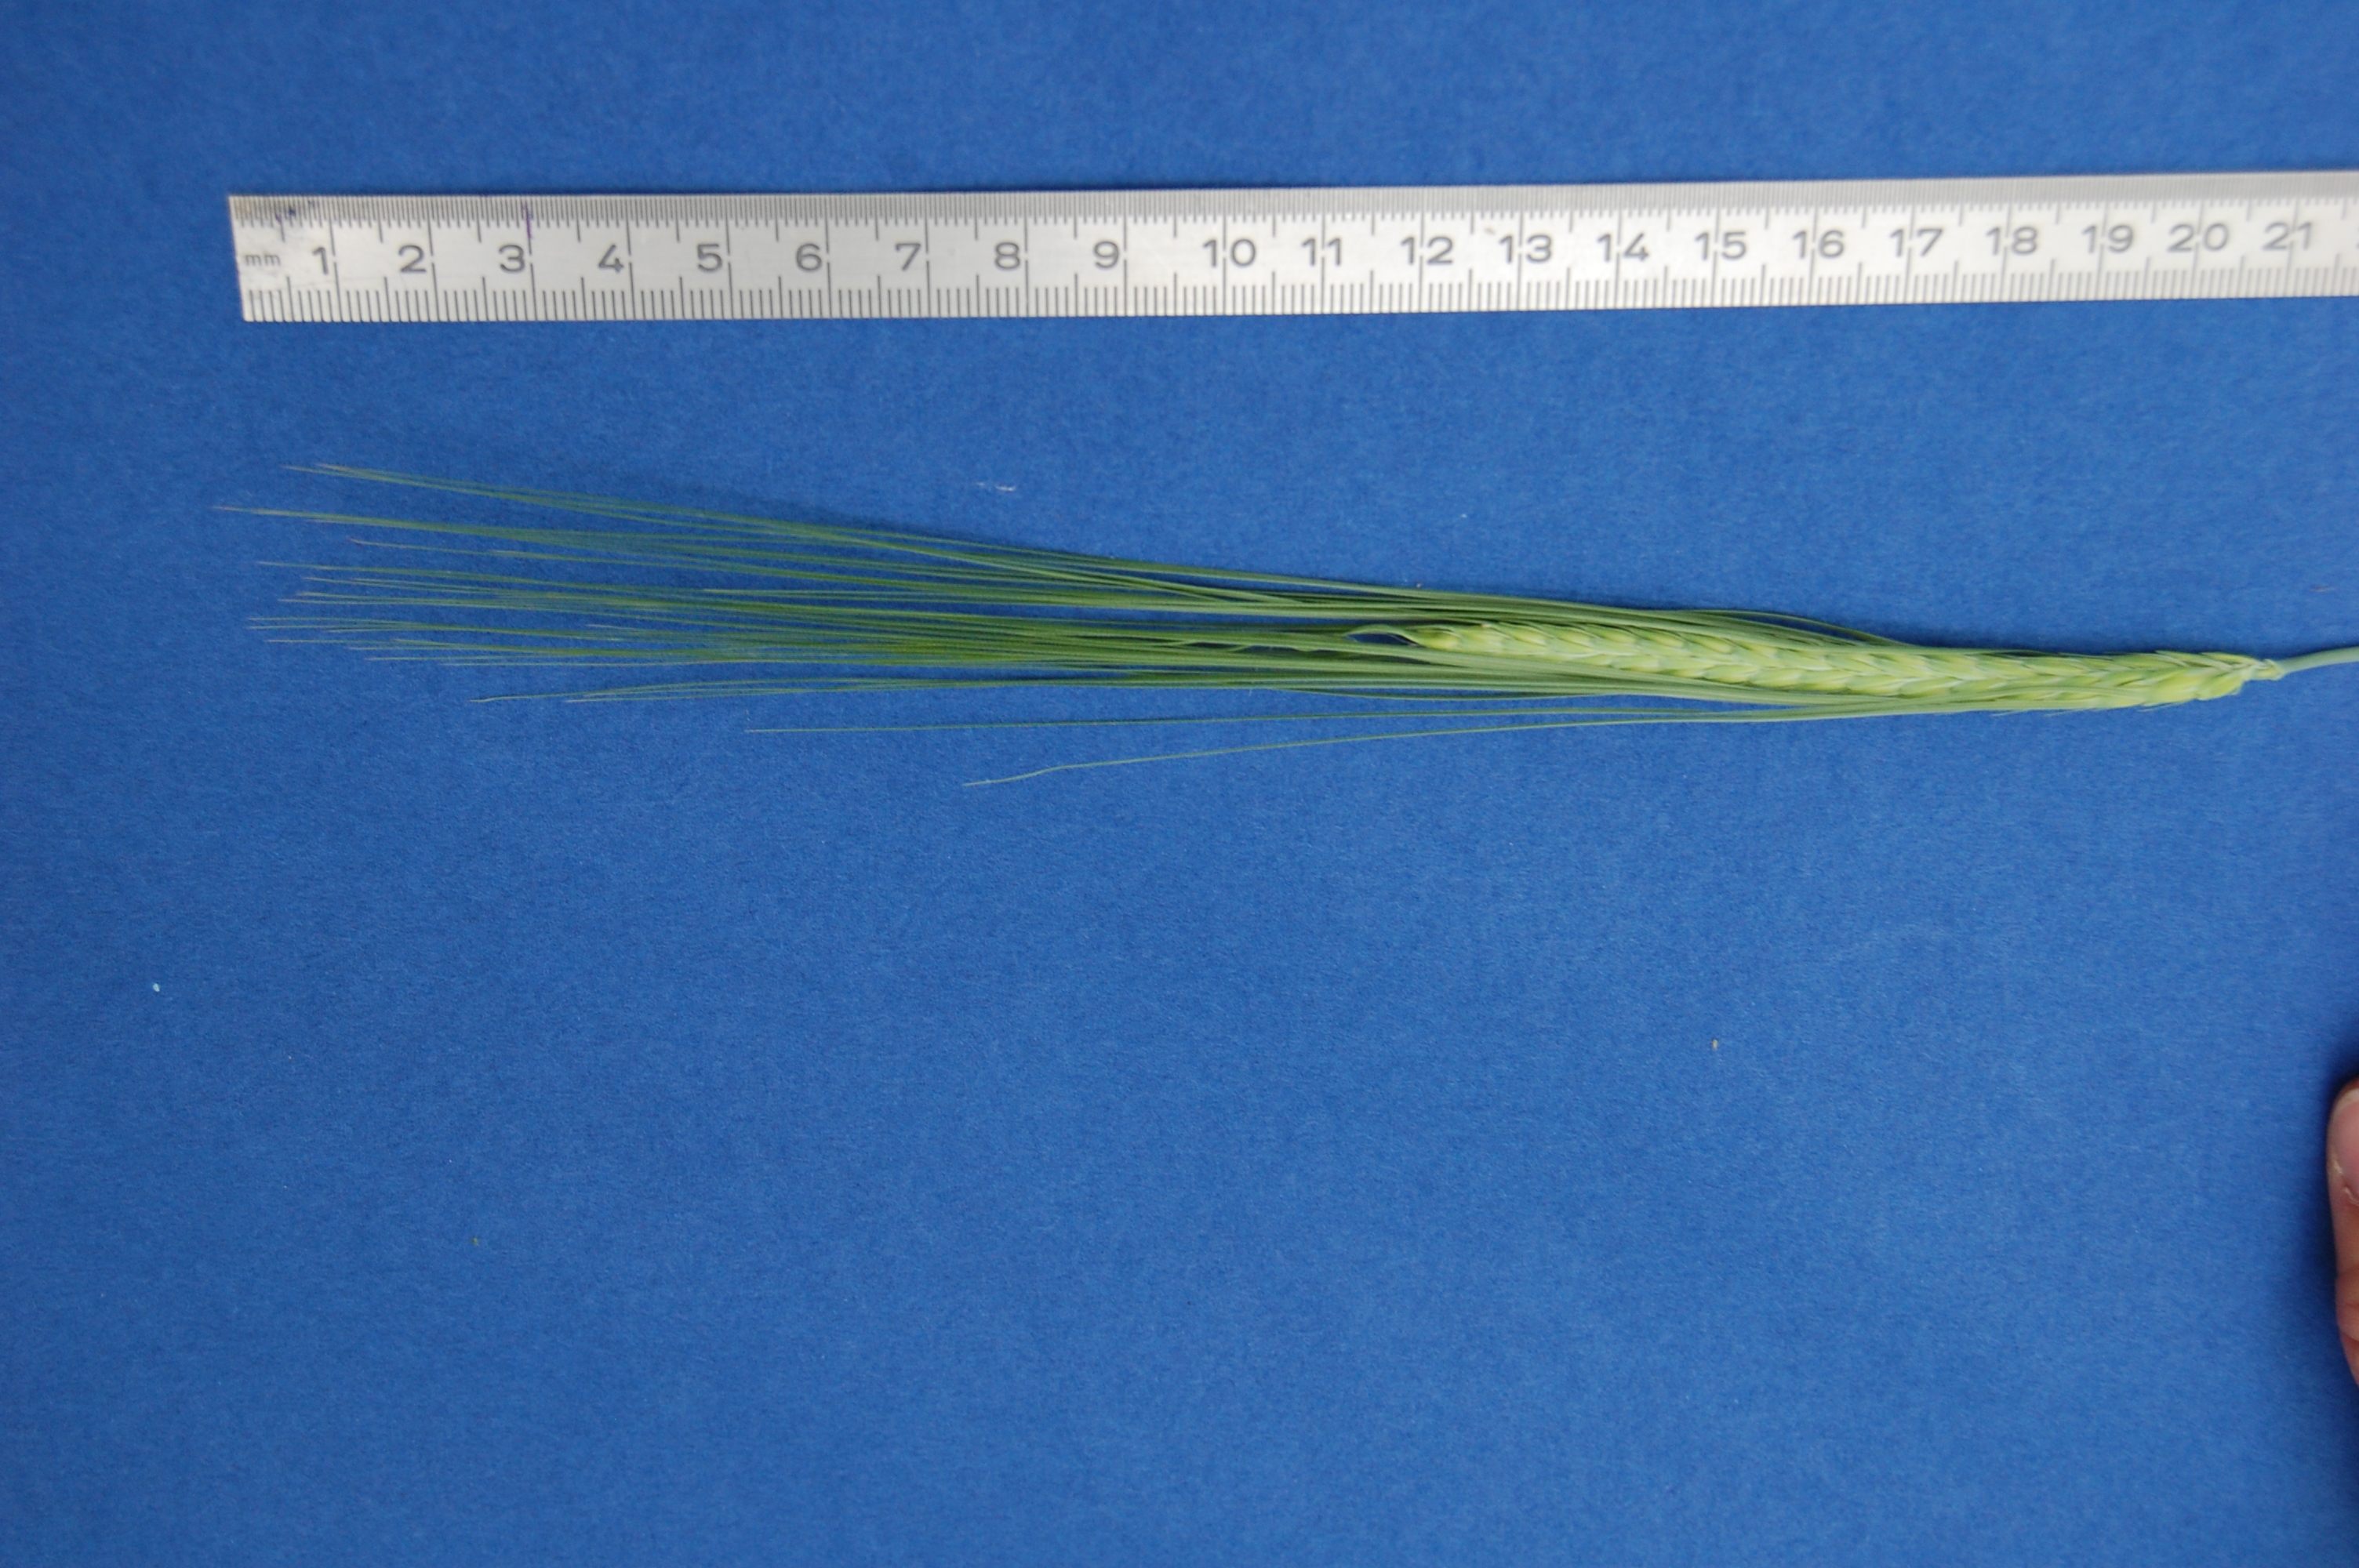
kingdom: Plantae
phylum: Tracheophyta
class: Liliopsida
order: Poales
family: Poaceae
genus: Hordeum
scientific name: Hordeum vulgare
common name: Common barley
